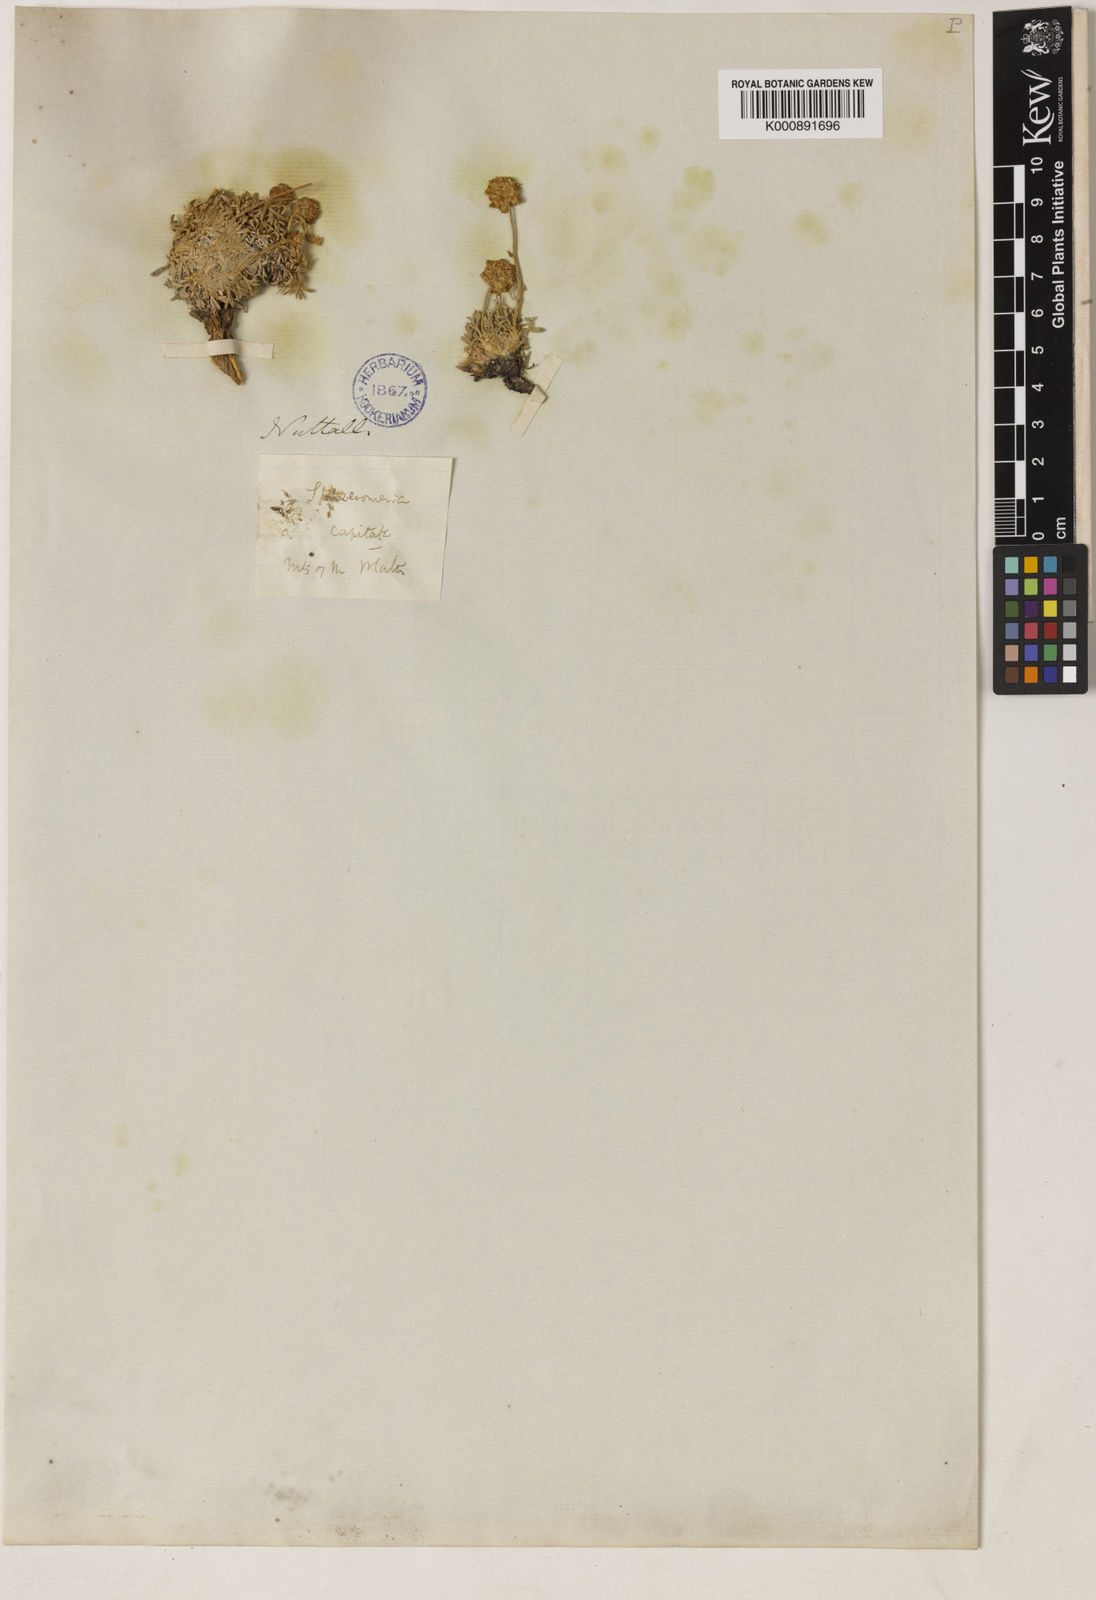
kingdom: Plantae
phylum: Tracheophyta
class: Magnoliopsida
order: Asterales
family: Asteraceae
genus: Artemisia
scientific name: Artemisia capitata
